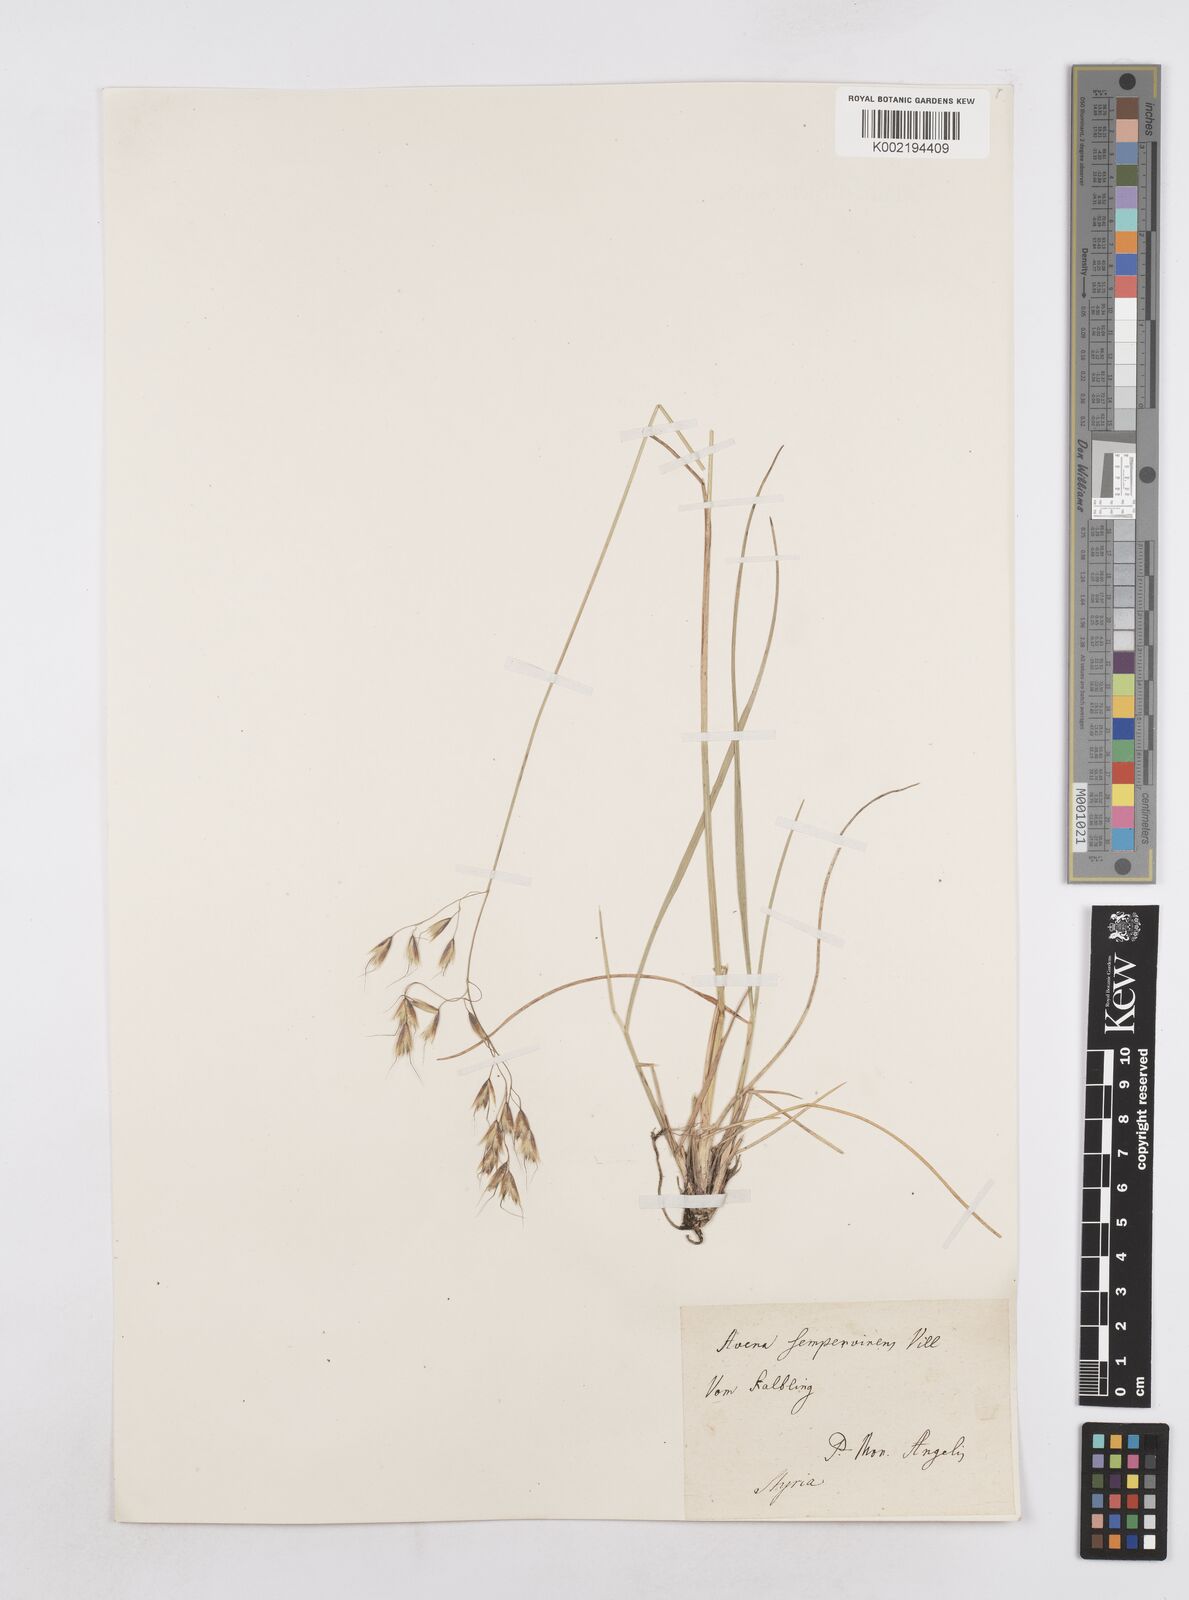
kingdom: Plantae
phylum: Tracheophyta
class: Liliopsida
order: Poales
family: Poaceae
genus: Helictotrichon
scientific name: Helictotrichon
